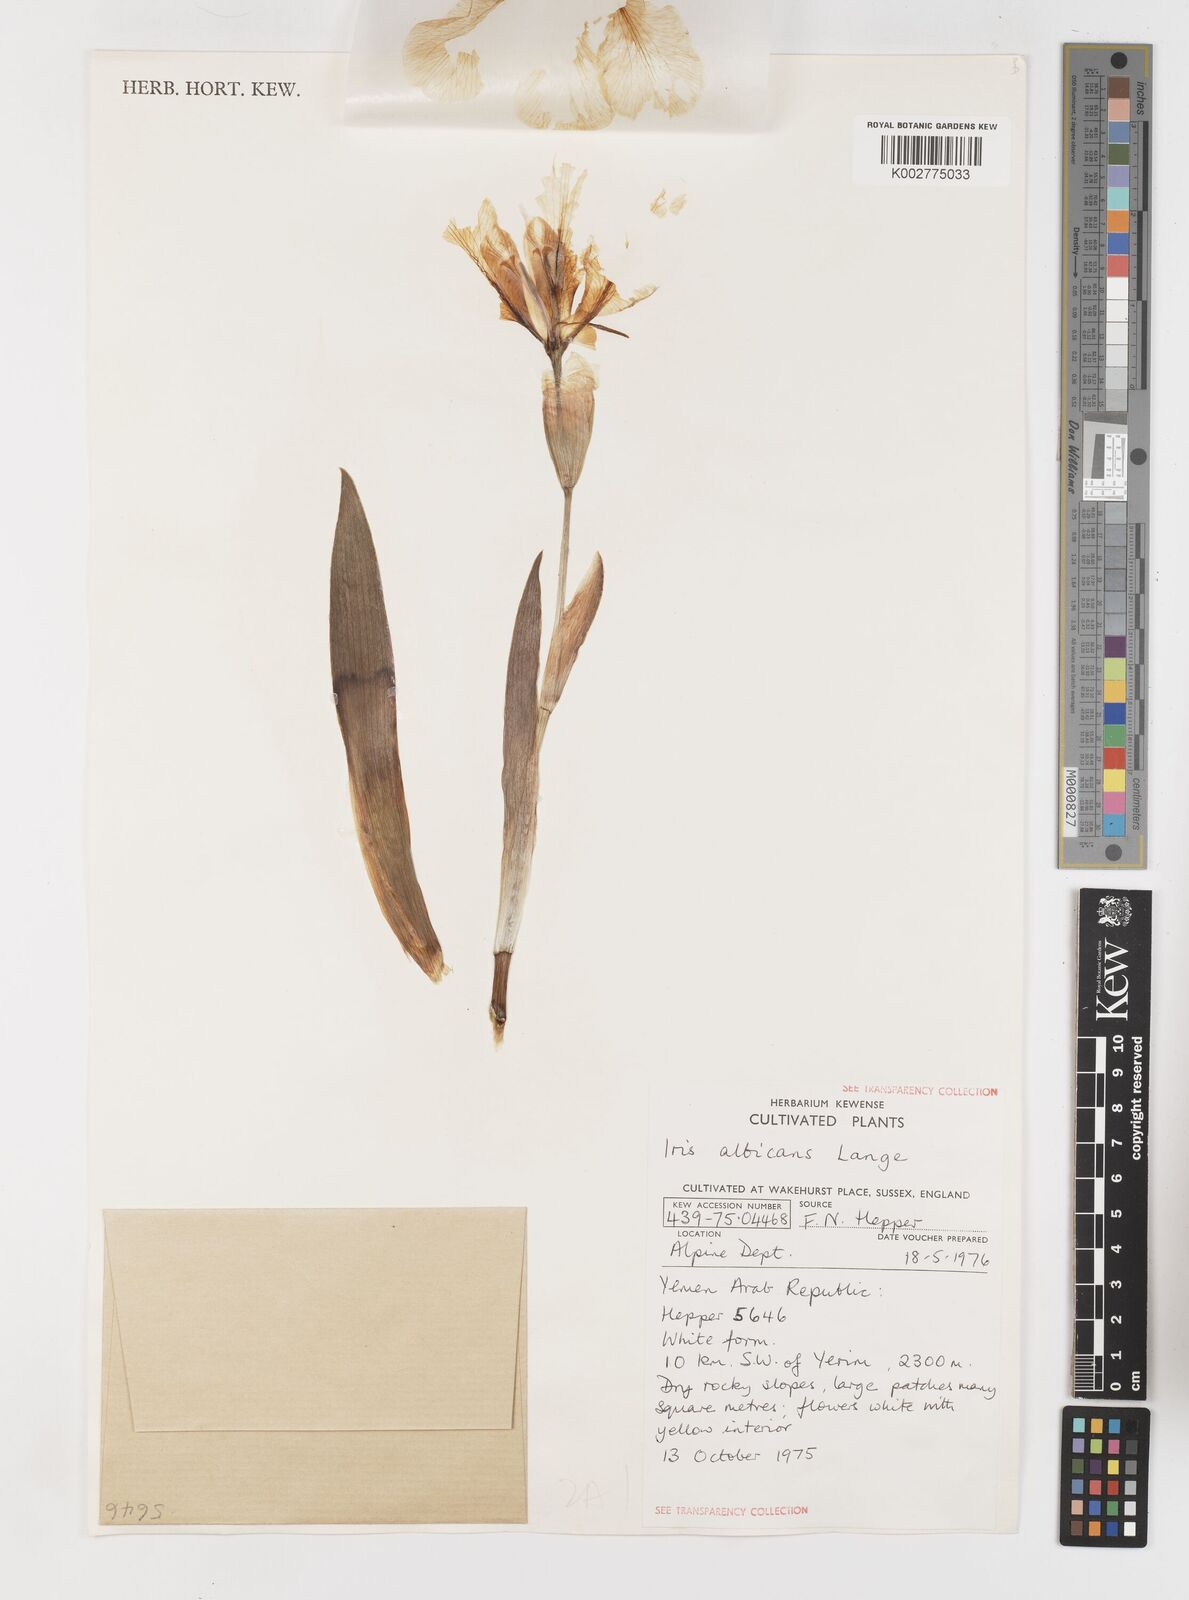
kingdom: Plantae
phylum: Tracheophyta
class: Liliopsida
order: Asparagales
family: Iridaceae
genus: Iris
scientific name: Iris florentina
